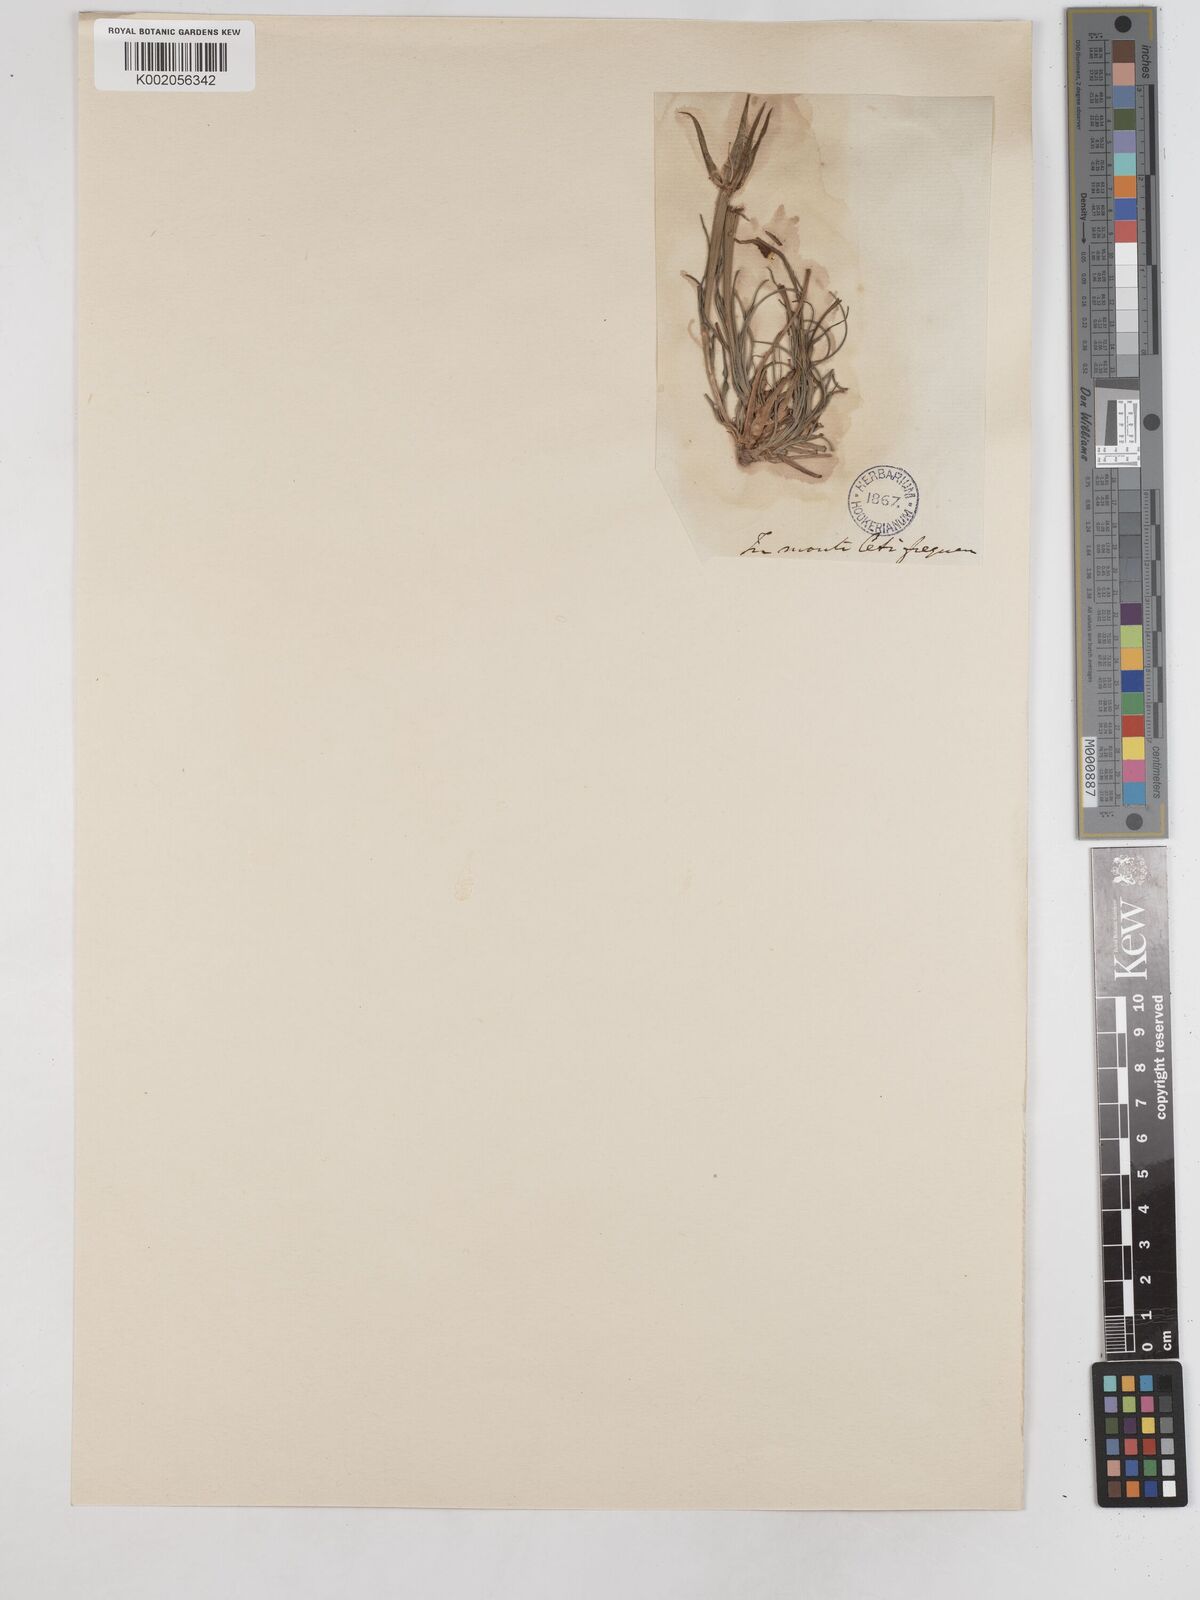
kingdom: Plantae
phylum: Tracheophyta
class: Magnoliopsida
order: Asterales
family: Asteraceae
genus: Tragopogon
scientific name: Tragopogon crocifolius
